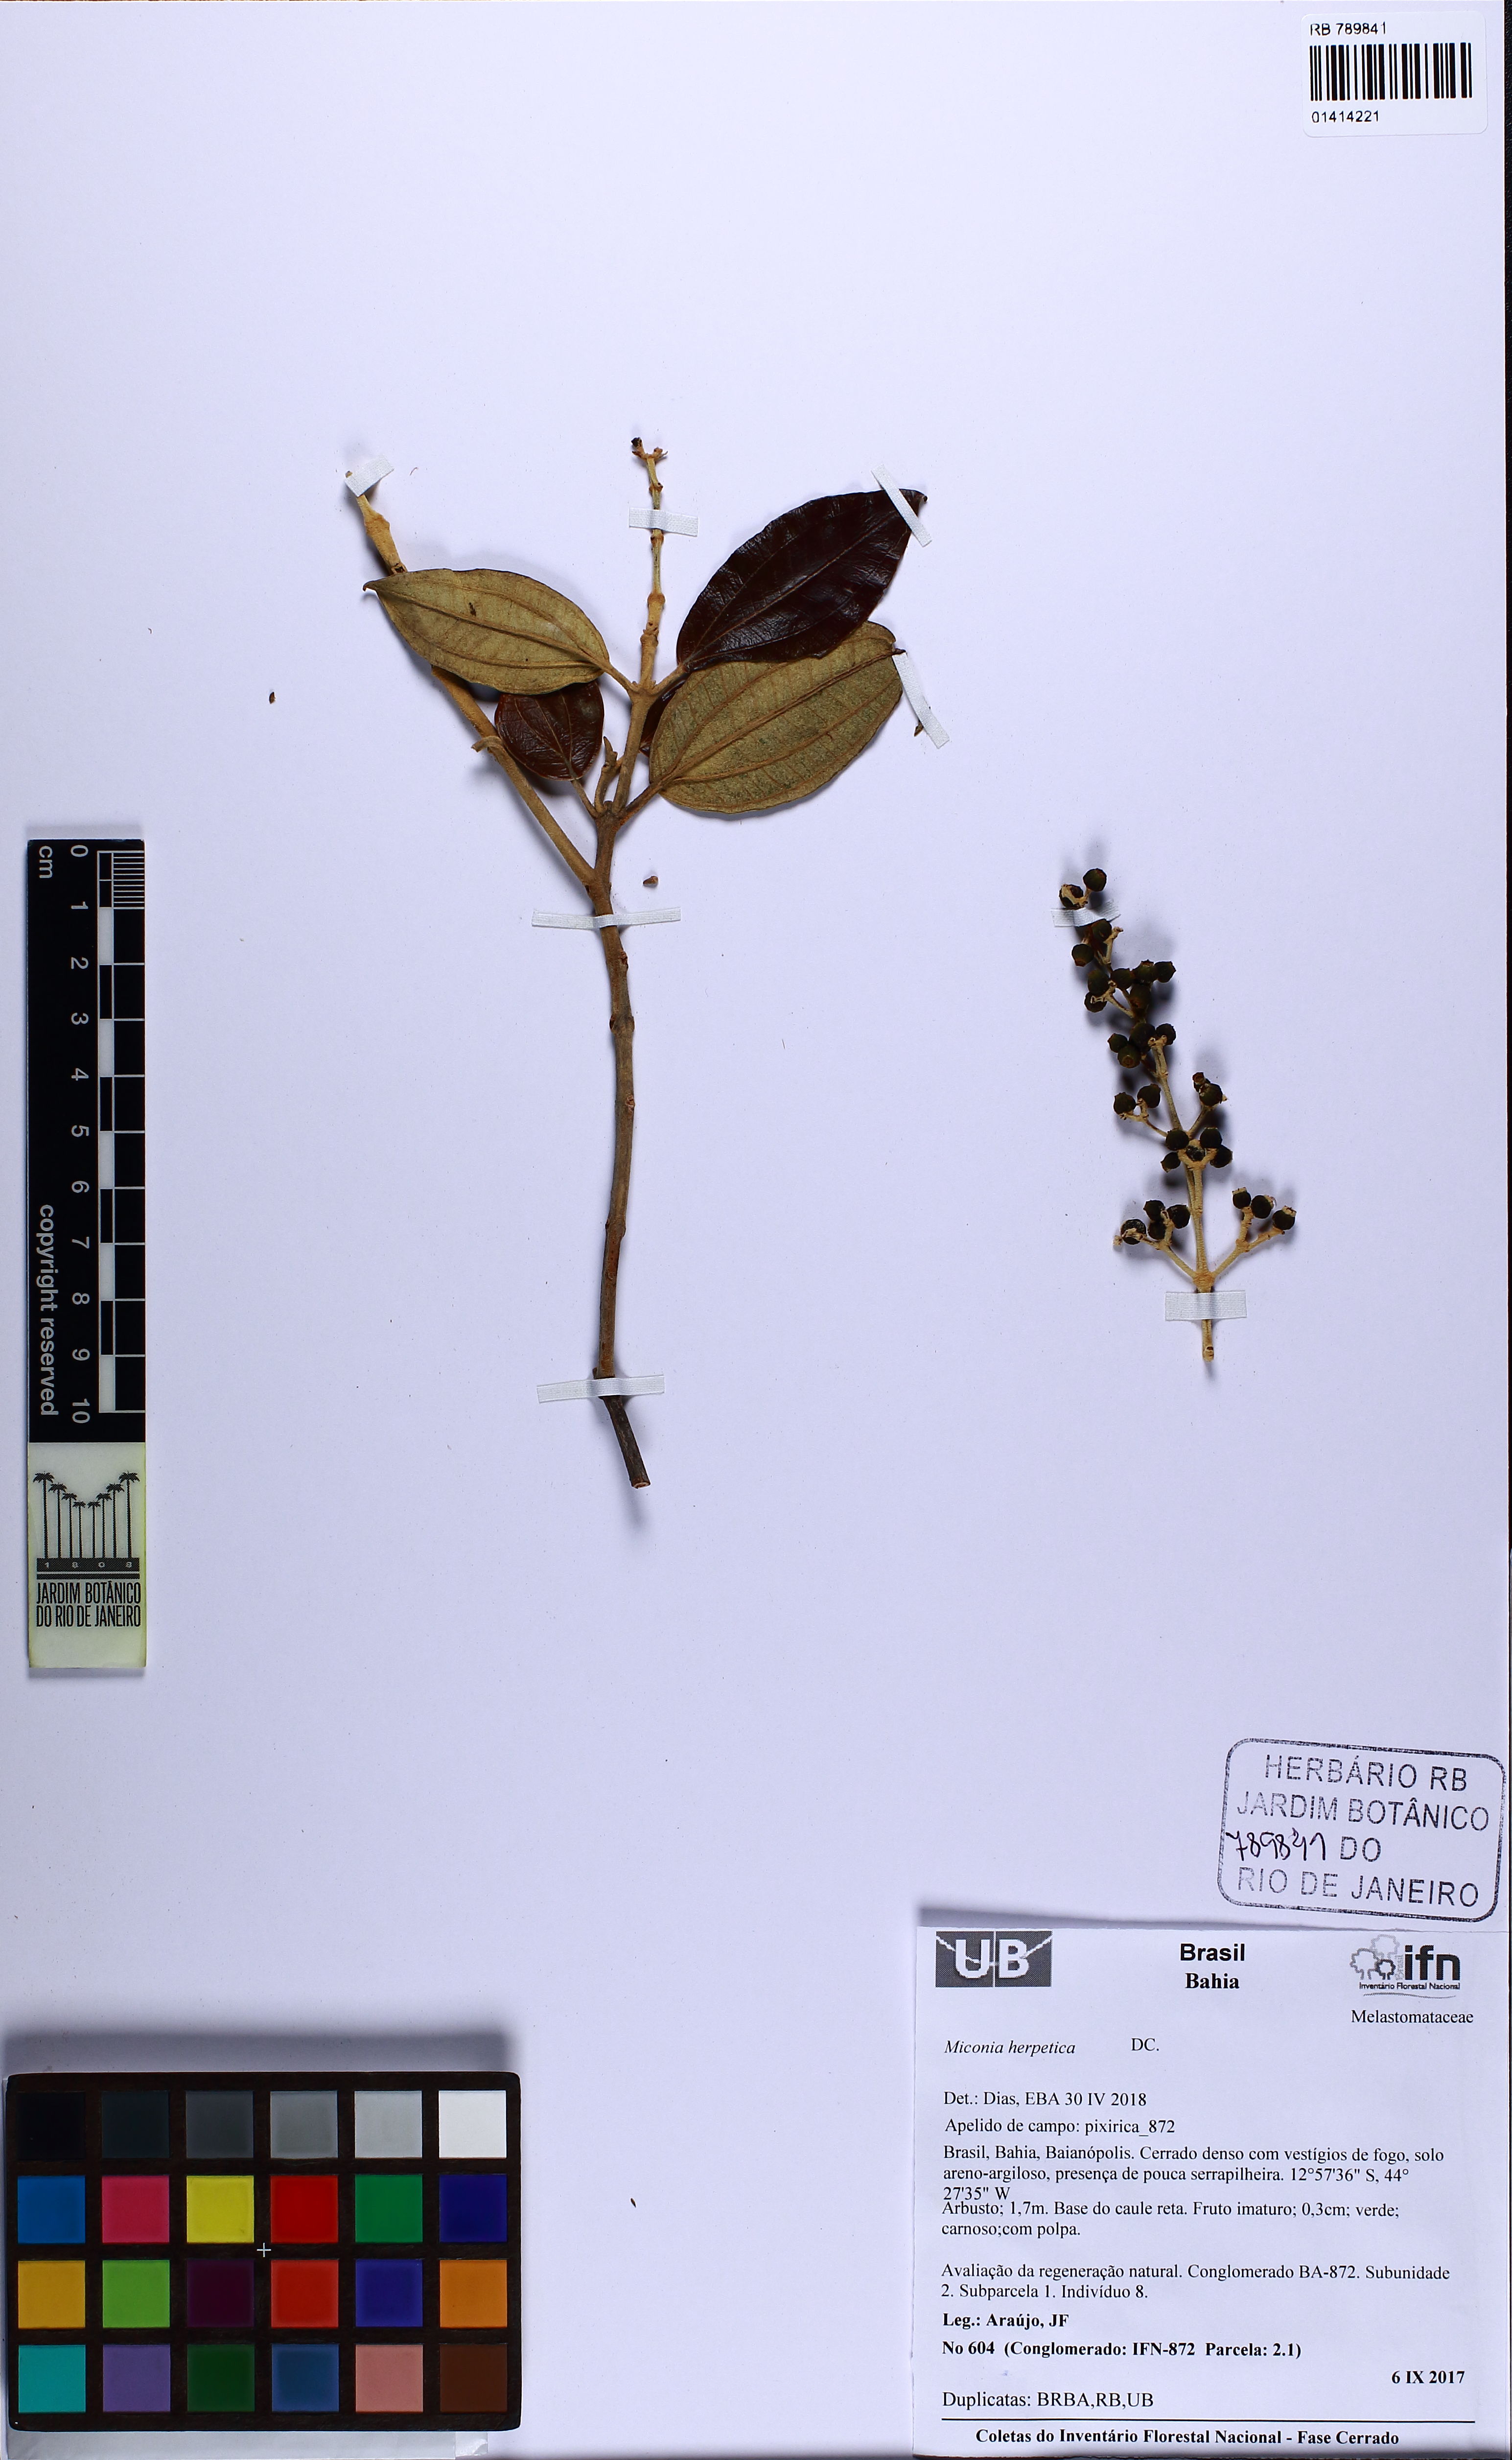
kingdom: Plantae
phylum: Tracheophyta
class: Magnoliopsida
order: Myrtales
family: Melastomataceae
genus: Miconia
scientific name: Miconia herpetica
